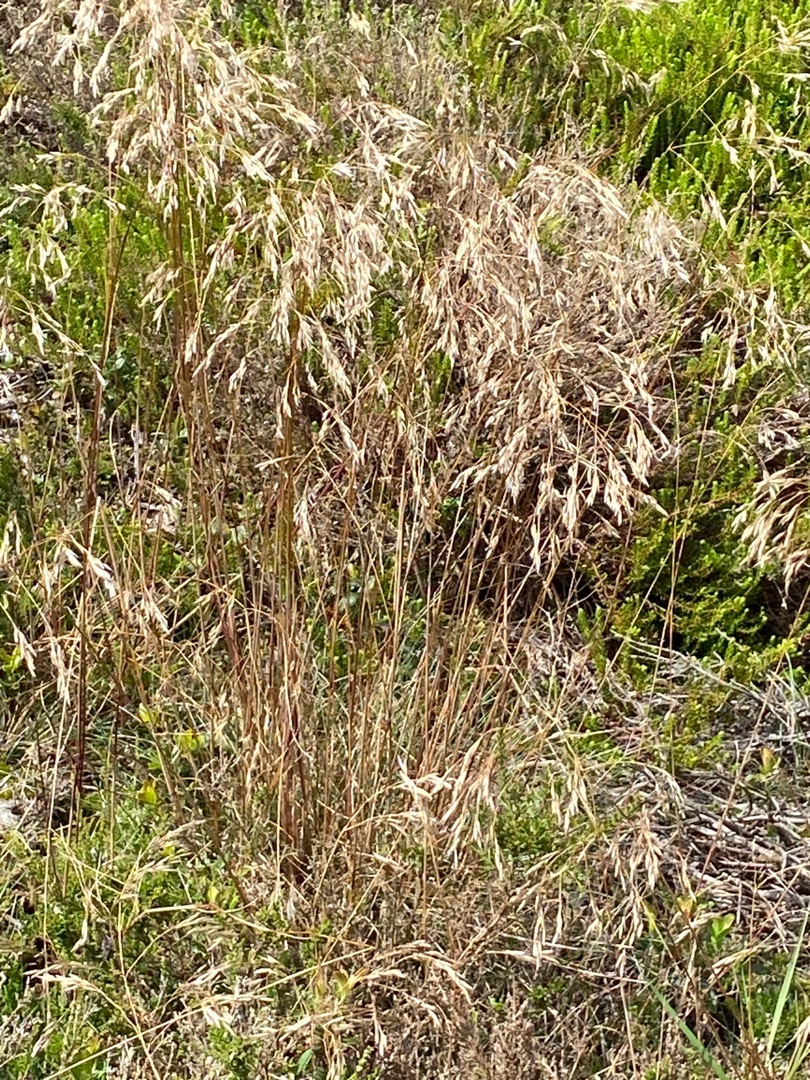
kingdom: Plantae
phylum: Tracheophyta
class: Liliopsida
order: Poales
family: Poaceae
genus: Avenella
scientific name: Avenella flexuosa
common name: Bølget bunke
